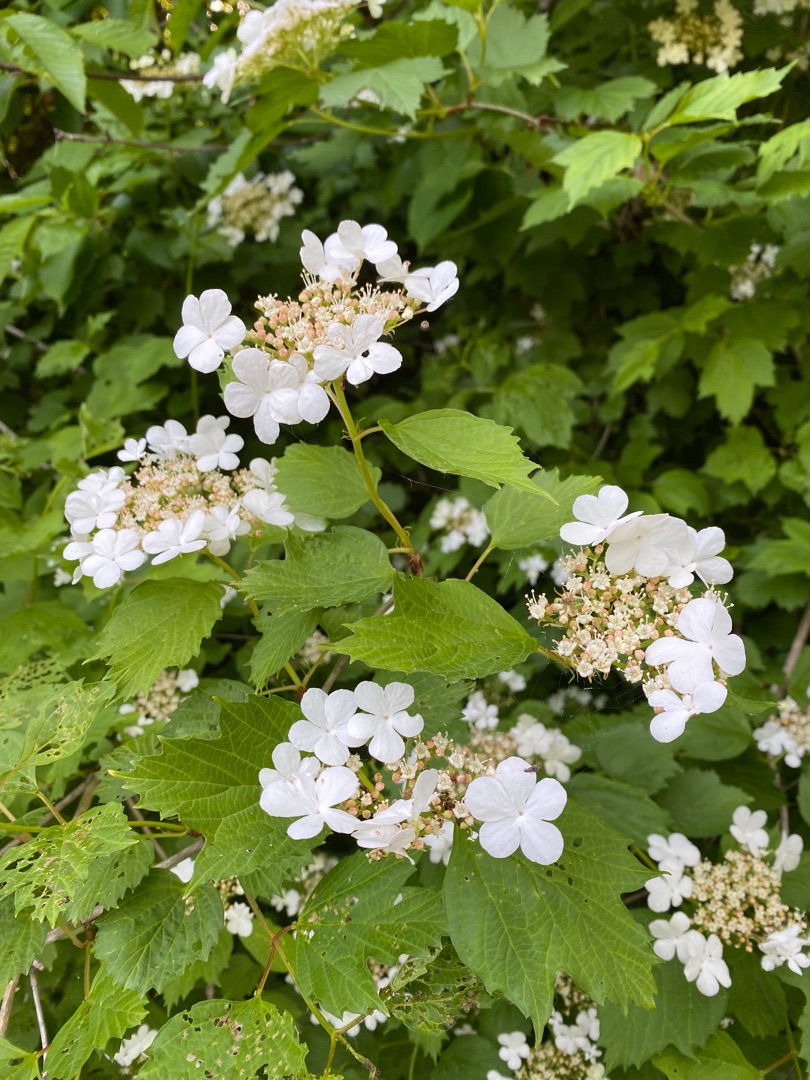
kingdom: Plantae
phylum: Tracheophyta
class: Magnoliopsida
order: Dipsacales
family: Viburnaceae
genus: Viburnum
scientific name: Viburnum opulus
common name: Kvalkved
